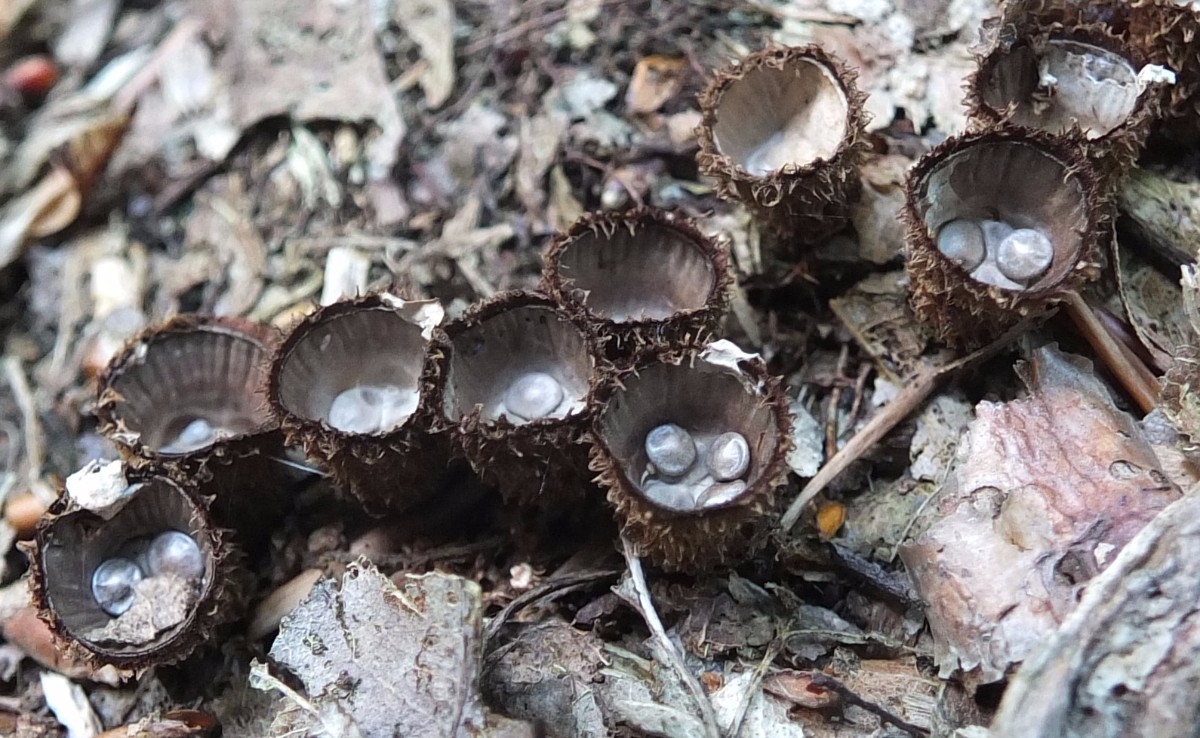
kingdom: Fungi
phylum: Basidiomycota
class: Agaricomycetes
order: Agaricales
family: Agaricaceae
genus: Cyathus
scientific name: Cyathus striatus
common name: stribet redesvamp
